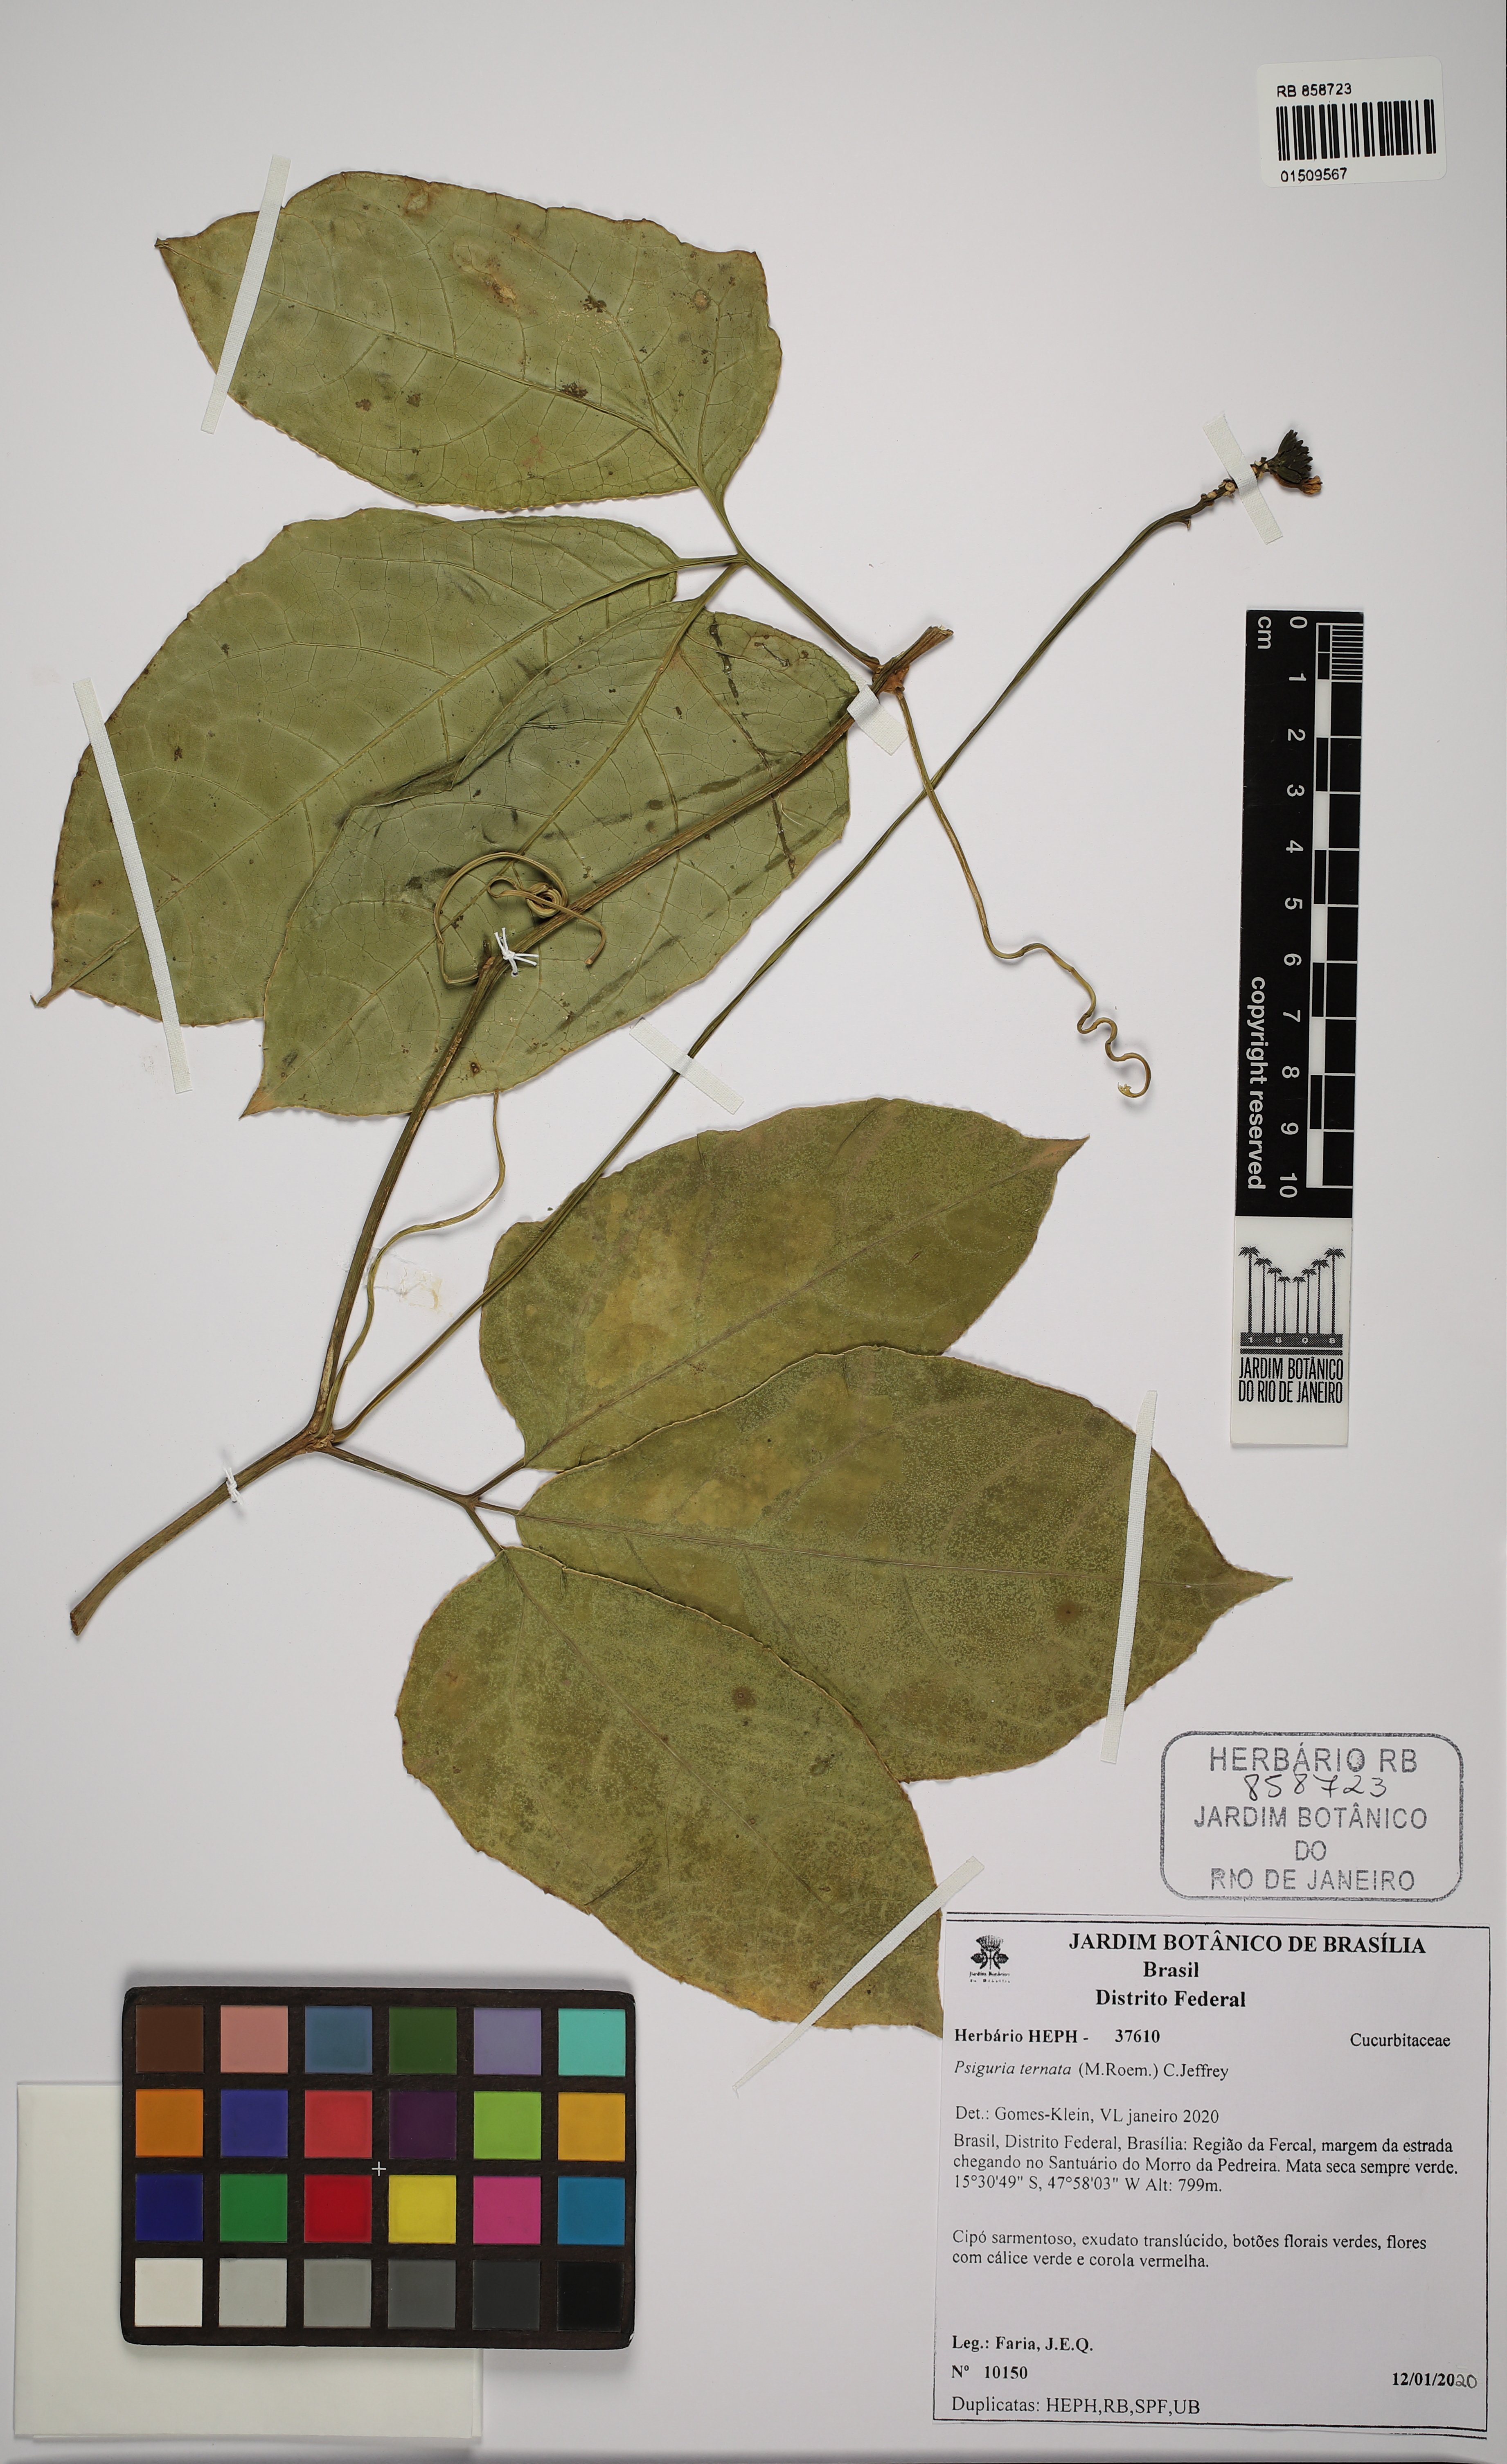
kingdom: Plantae
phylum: Tracheophyta
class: Magnoliopsida
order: Cucurbitales
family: Cucurbitaceae
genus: Psiguria
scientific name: Psiguria ternata
